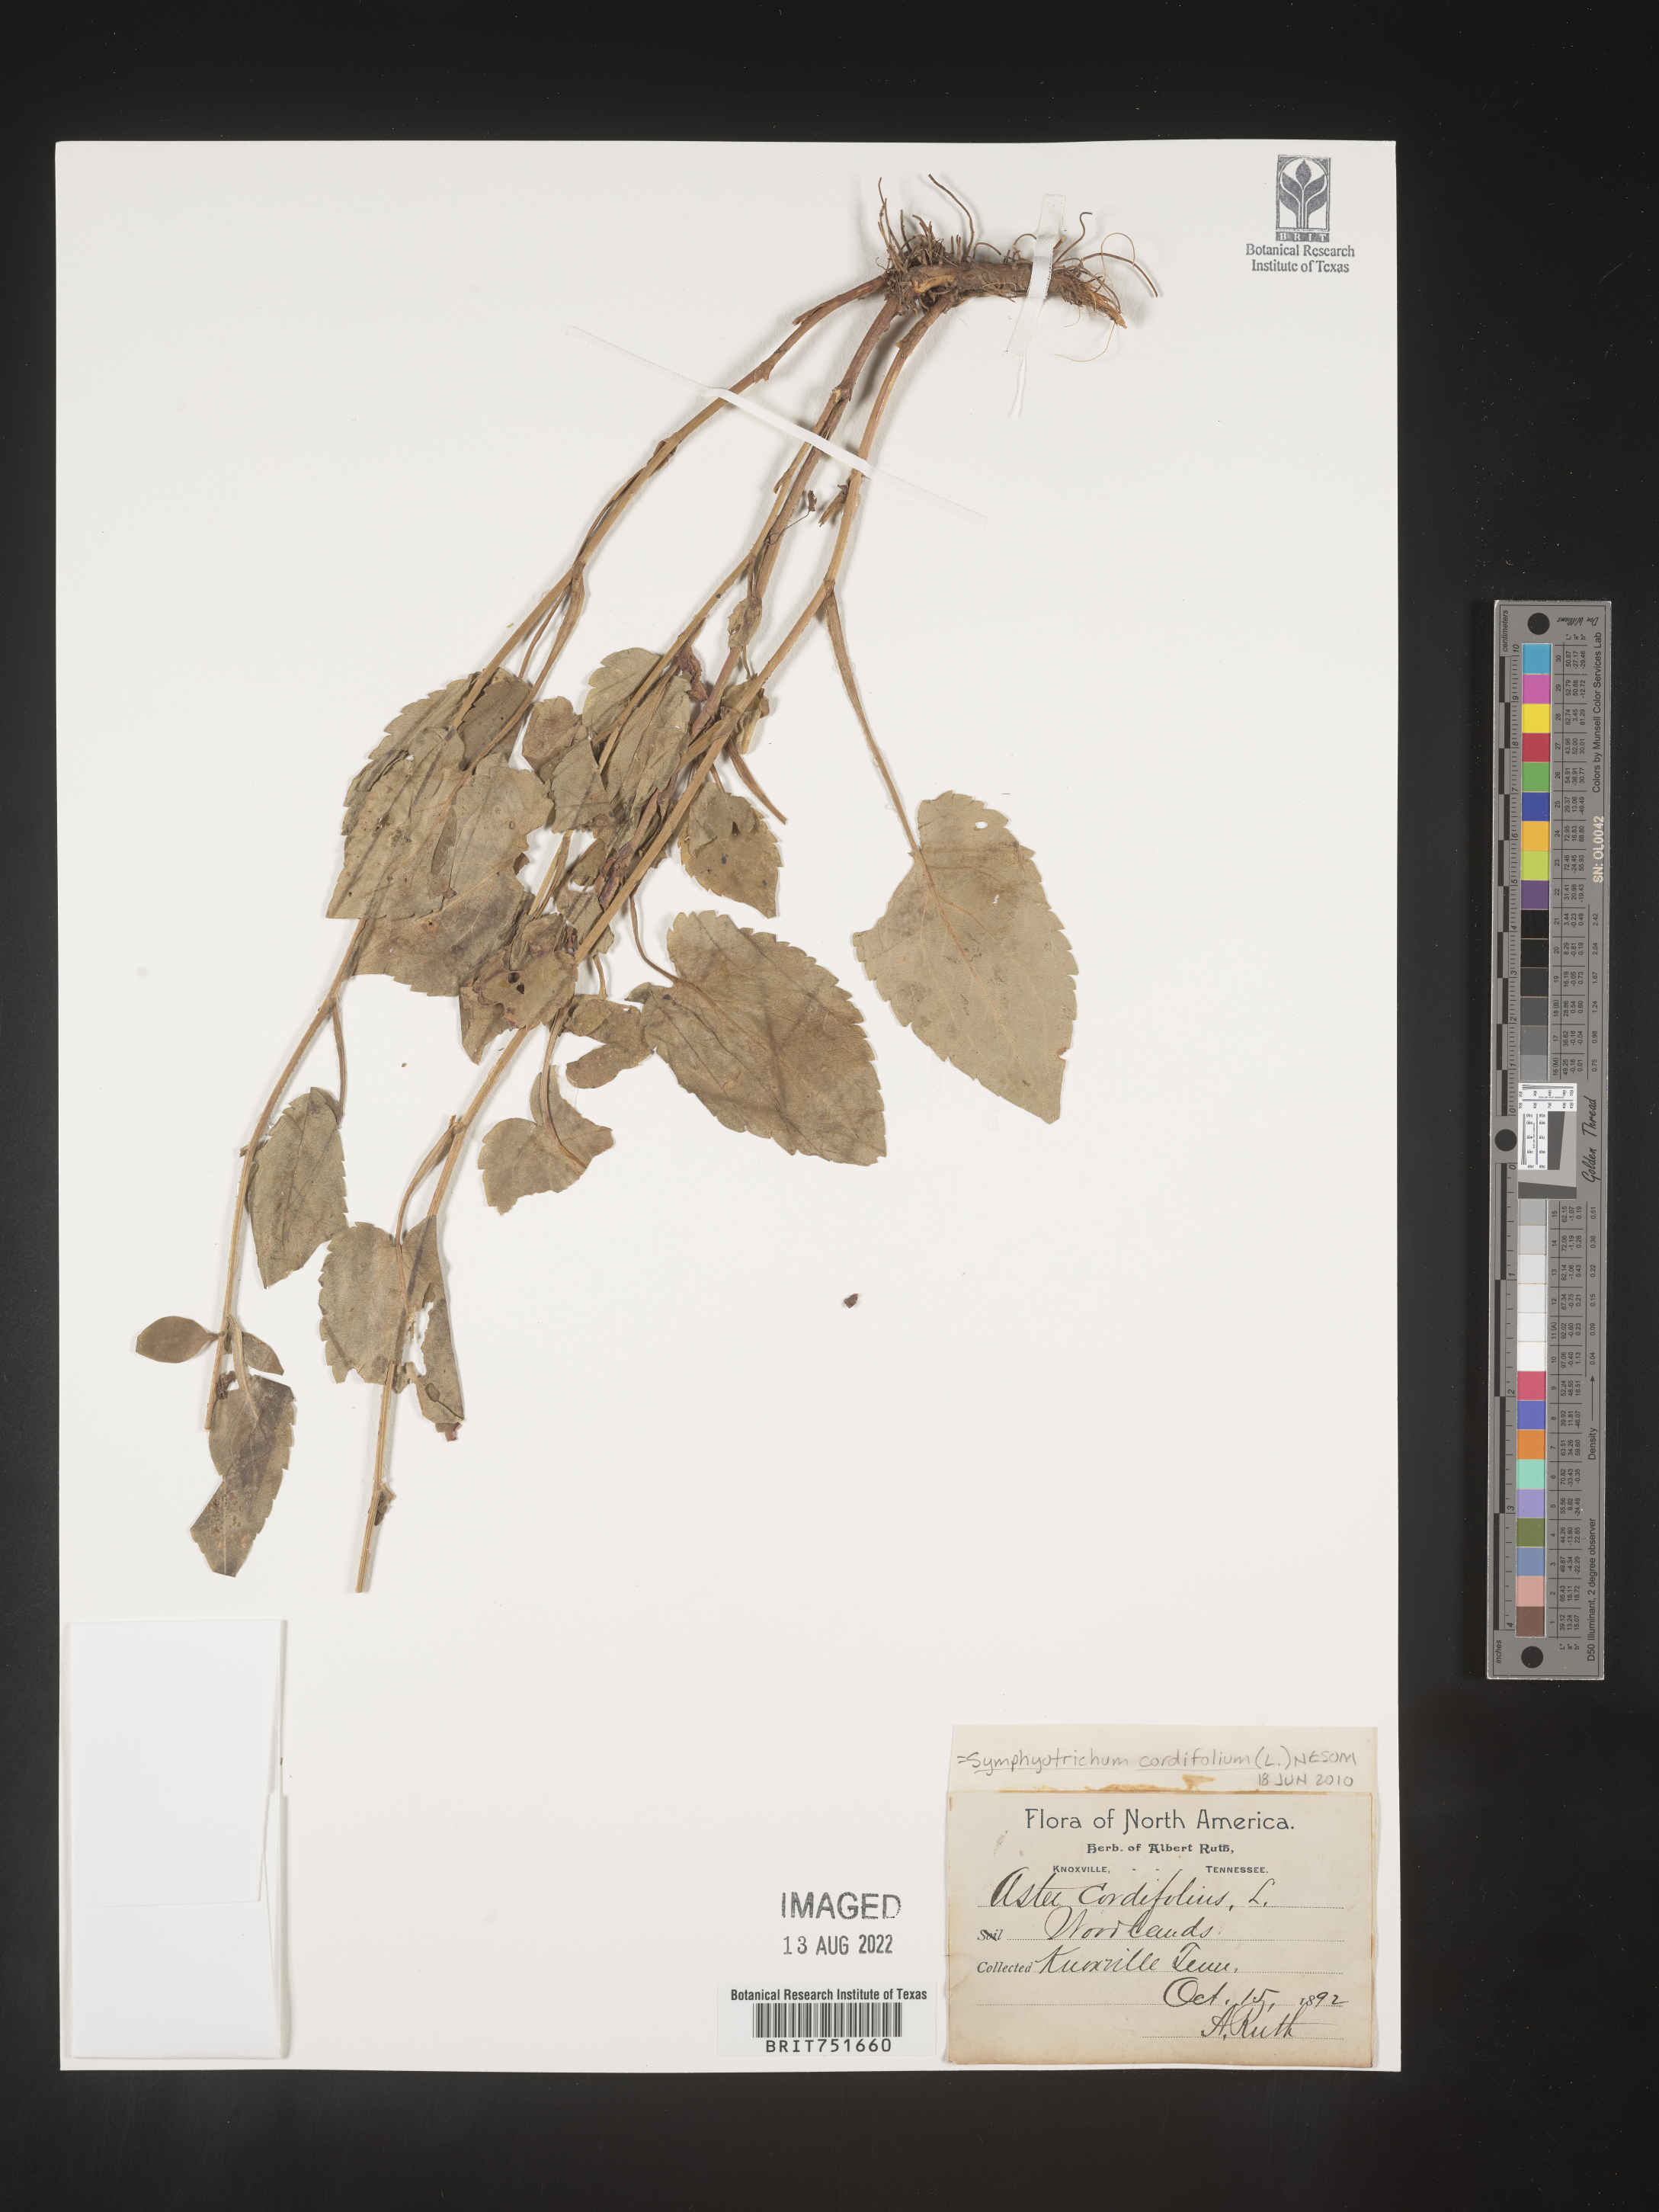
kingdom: Plantae
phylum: Tracheophyta
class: Magnoliopsida
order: Asterales
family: Asteraceae
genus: Symphyotrichum
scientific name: Symphyotrichum cordifolium
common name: Beeweed
